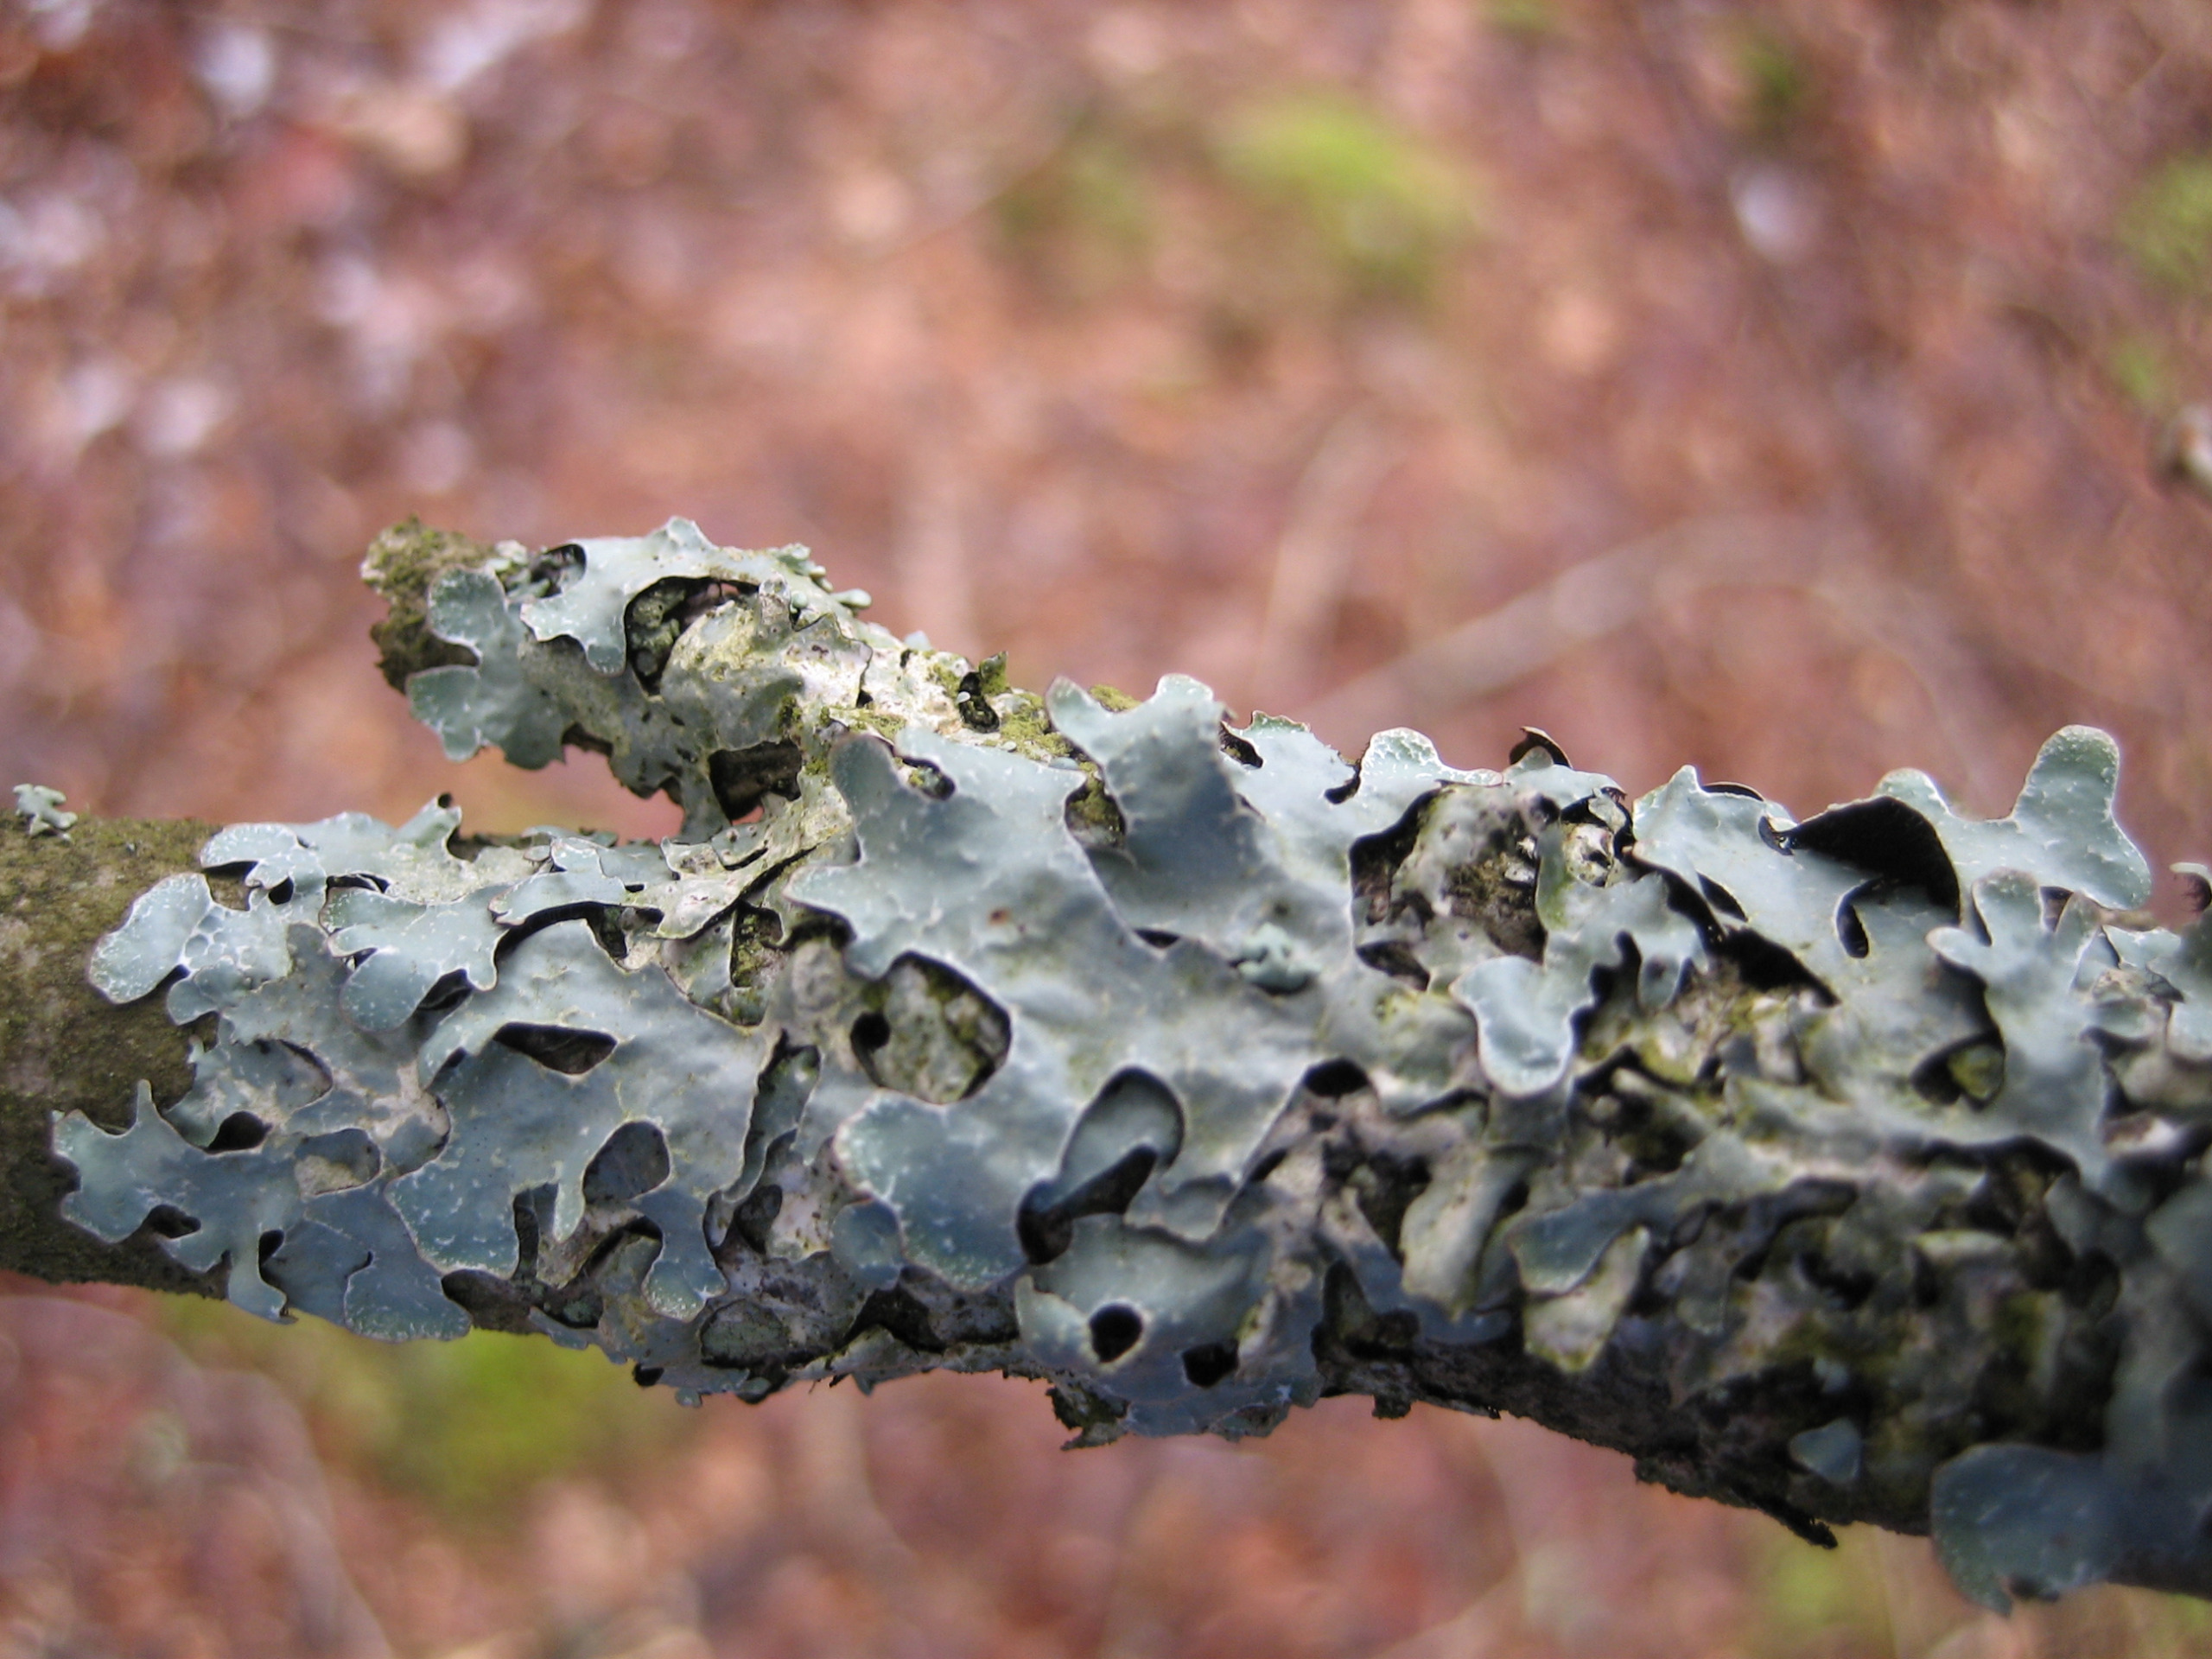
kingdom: Fungi
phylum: Ascomycota
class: Lecanoromycetes
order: Lecanorales
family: Parmeliaceae
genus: Parmelia
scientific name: Parmelia sulcata
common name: Rynket skållav
